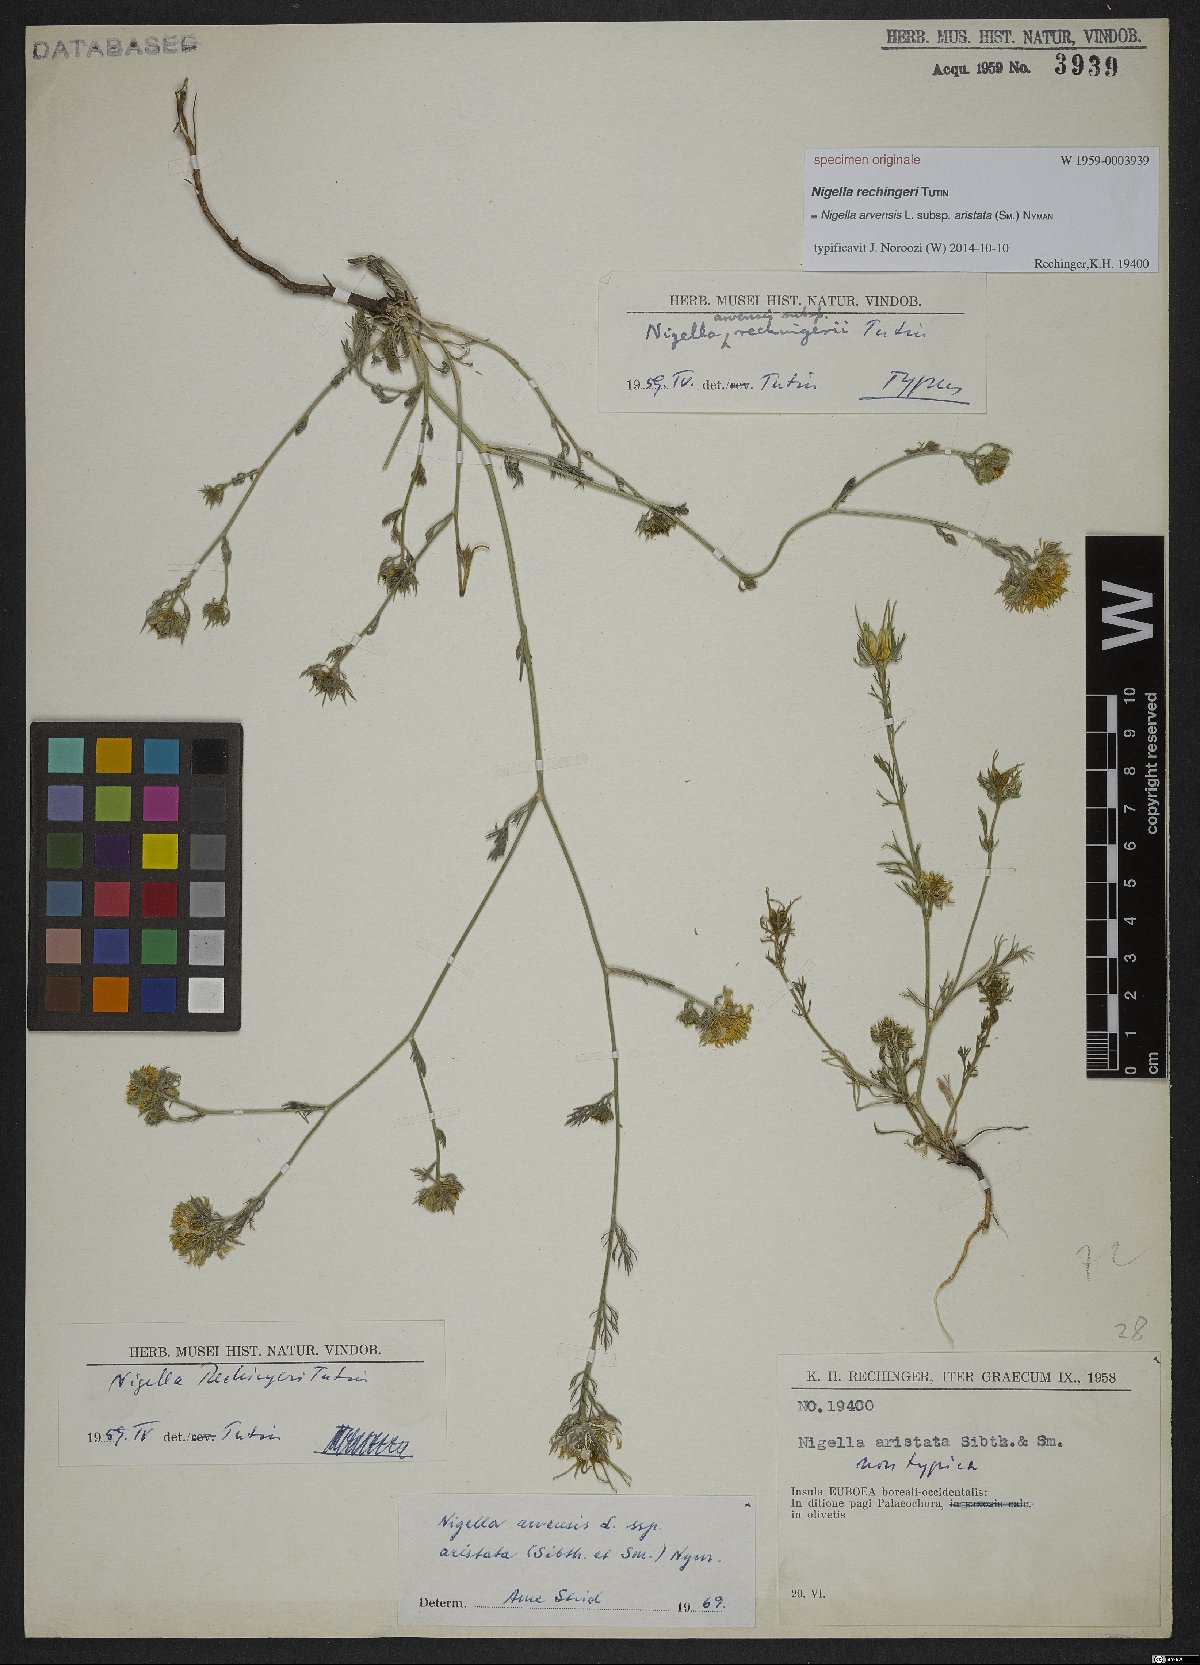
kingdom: Plantae
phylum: Tracheophyta
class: Magnoliopsida
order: Ranunculales
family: Ranunculaceae
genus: Nigella
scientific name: Nigella arvensis
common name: Wild fennel-flower
